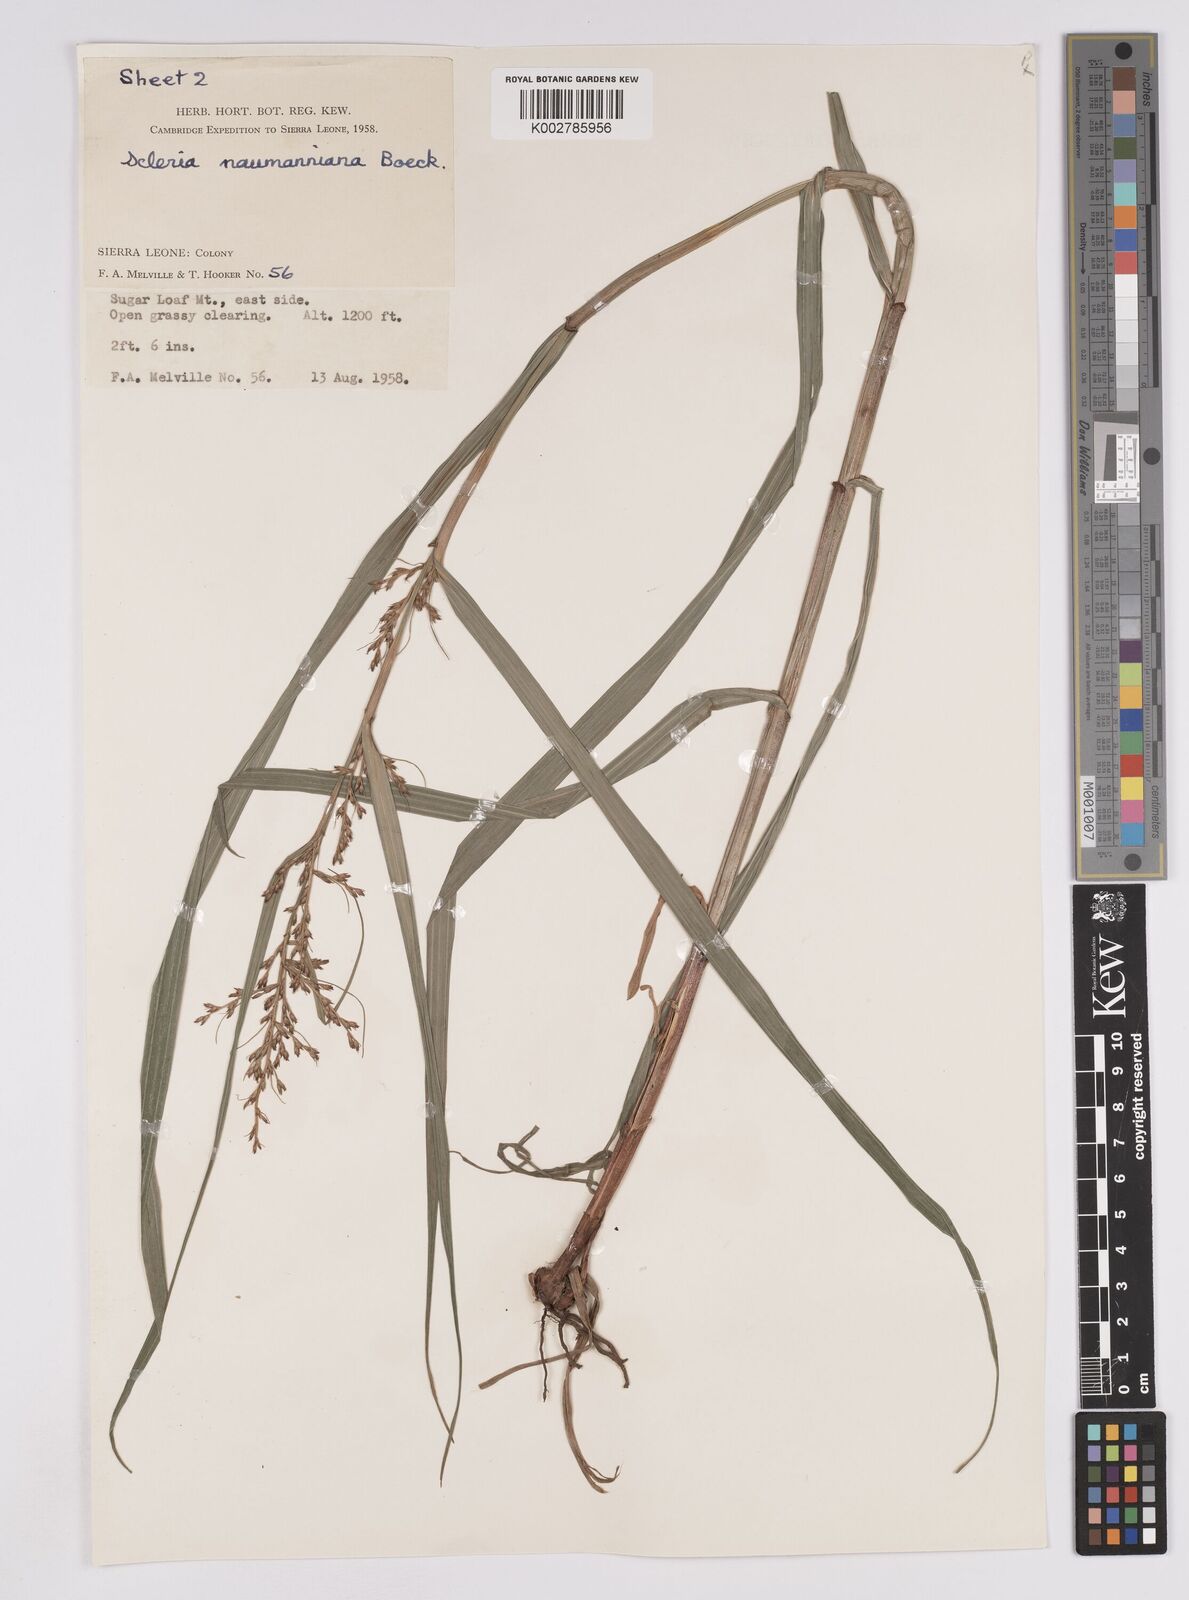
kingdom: Plantae
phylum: Tracheophyta
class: Liliopsida
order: Poales
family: Cyperaceae
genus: Scleria
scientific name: Scleria naumanniana
